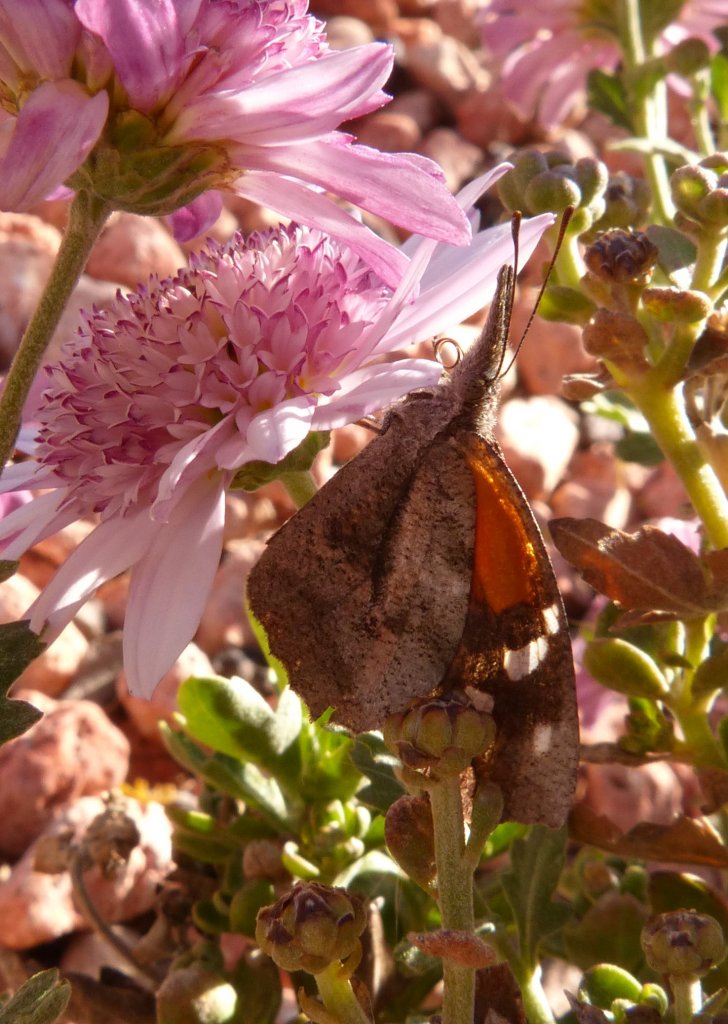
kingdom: Animalia
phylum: Arthropoda
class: Insecta
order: Lepidoptera
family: Nymphalidae
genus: Libytheana
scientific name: Libytheana carinenta
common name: American Snout
